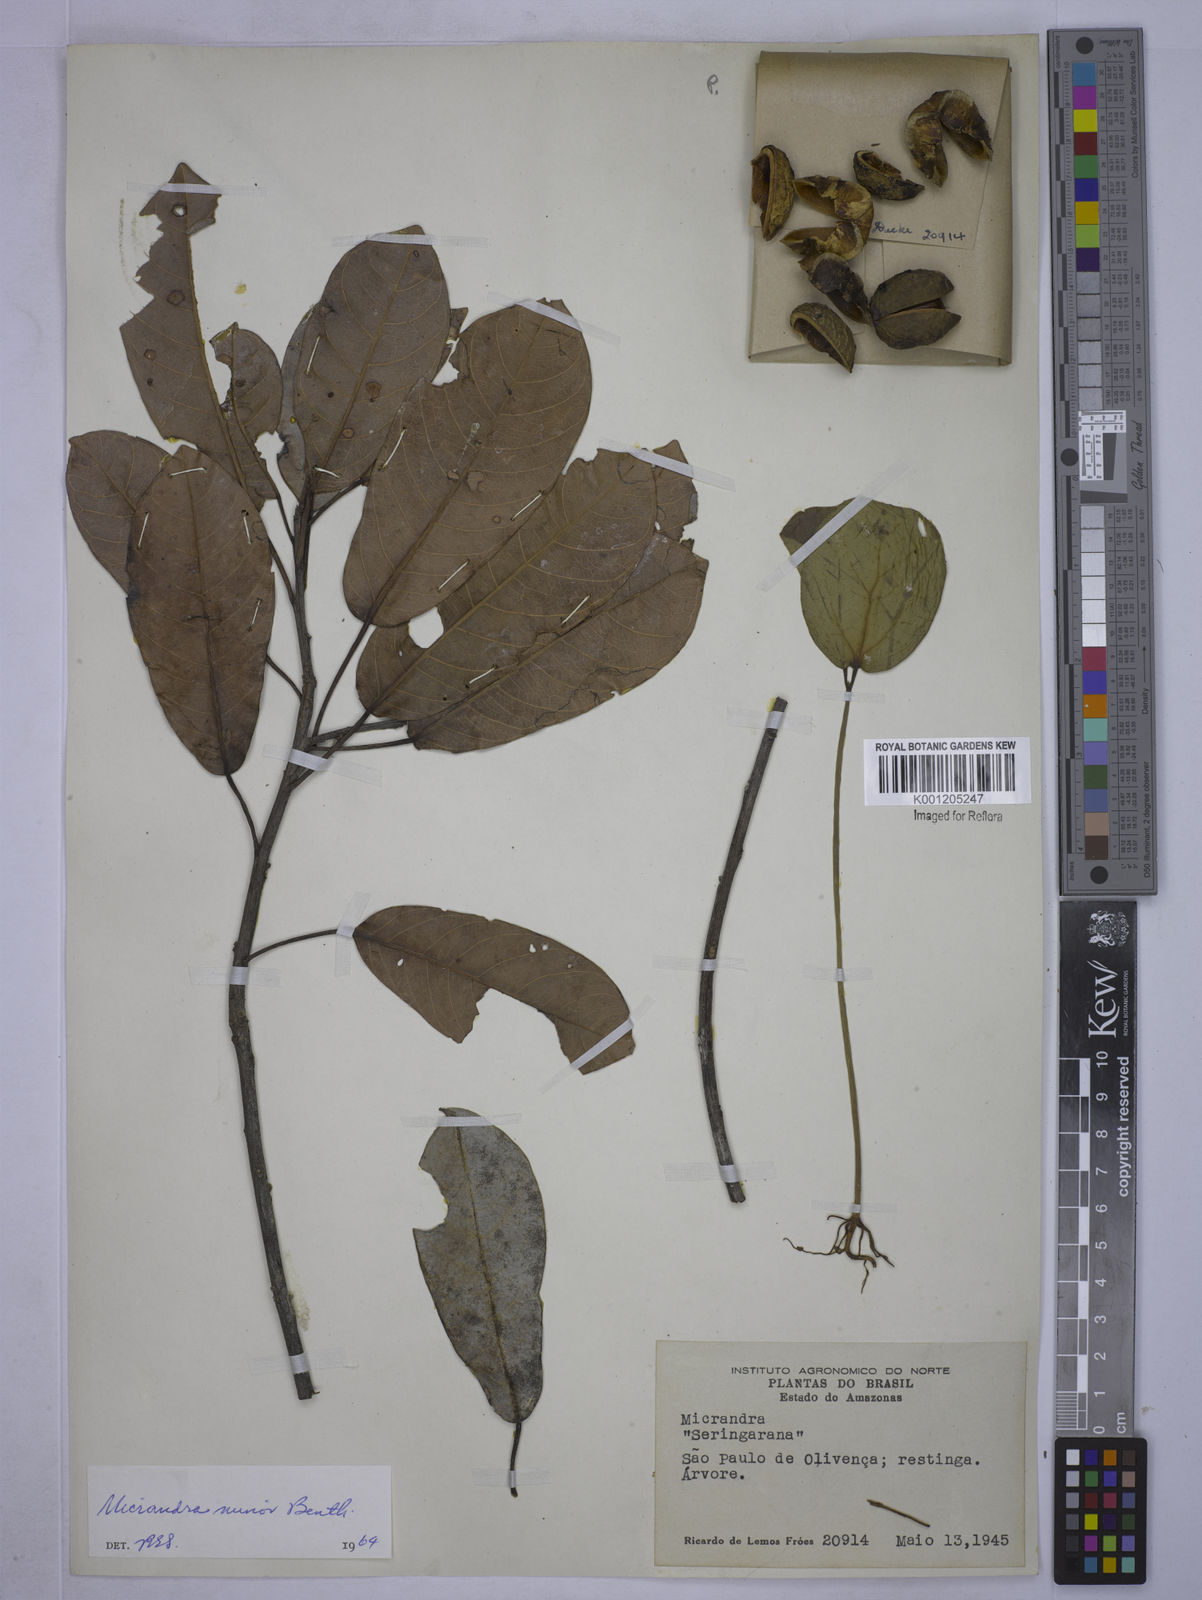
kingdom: Plantae
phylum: Tracheophyta
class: Magnoliopsida
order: Malpighiales
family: Euphorbiaceae
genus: Micrandra
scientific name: Micrandra minor
